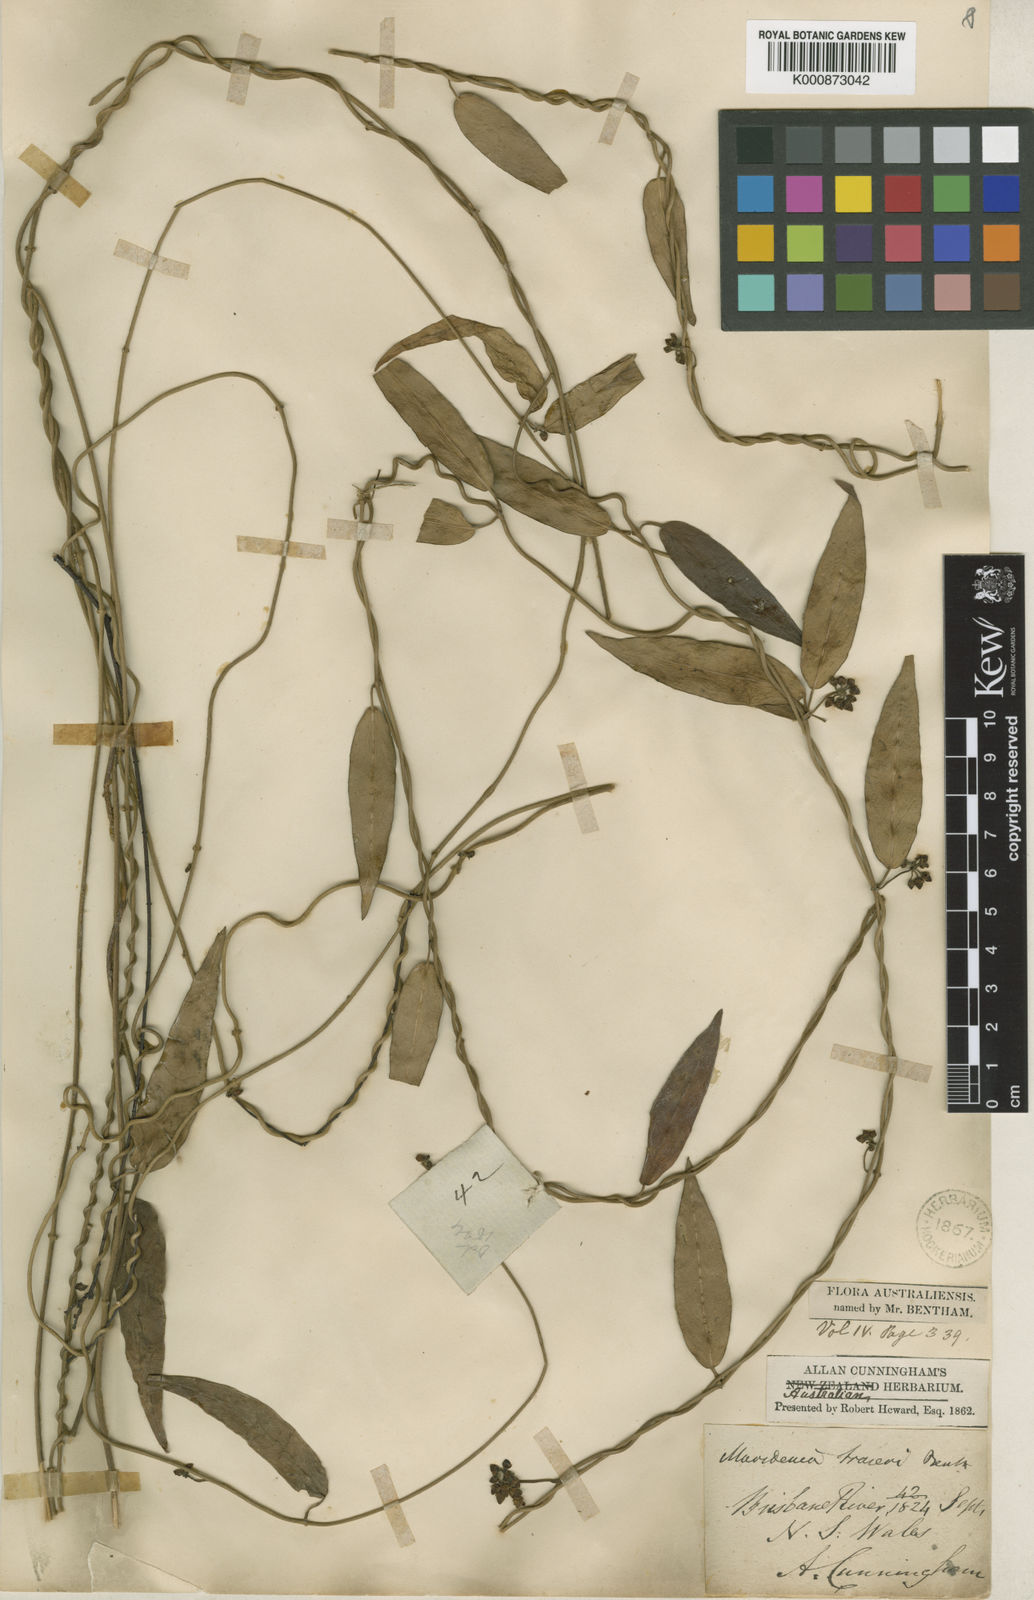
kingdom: Plantae
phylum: Tracheophyta
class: Magnoliopsida
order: Gentianales
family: Apocynaceae
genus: Leichhardtia
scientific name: Leichhardtia fraseri
